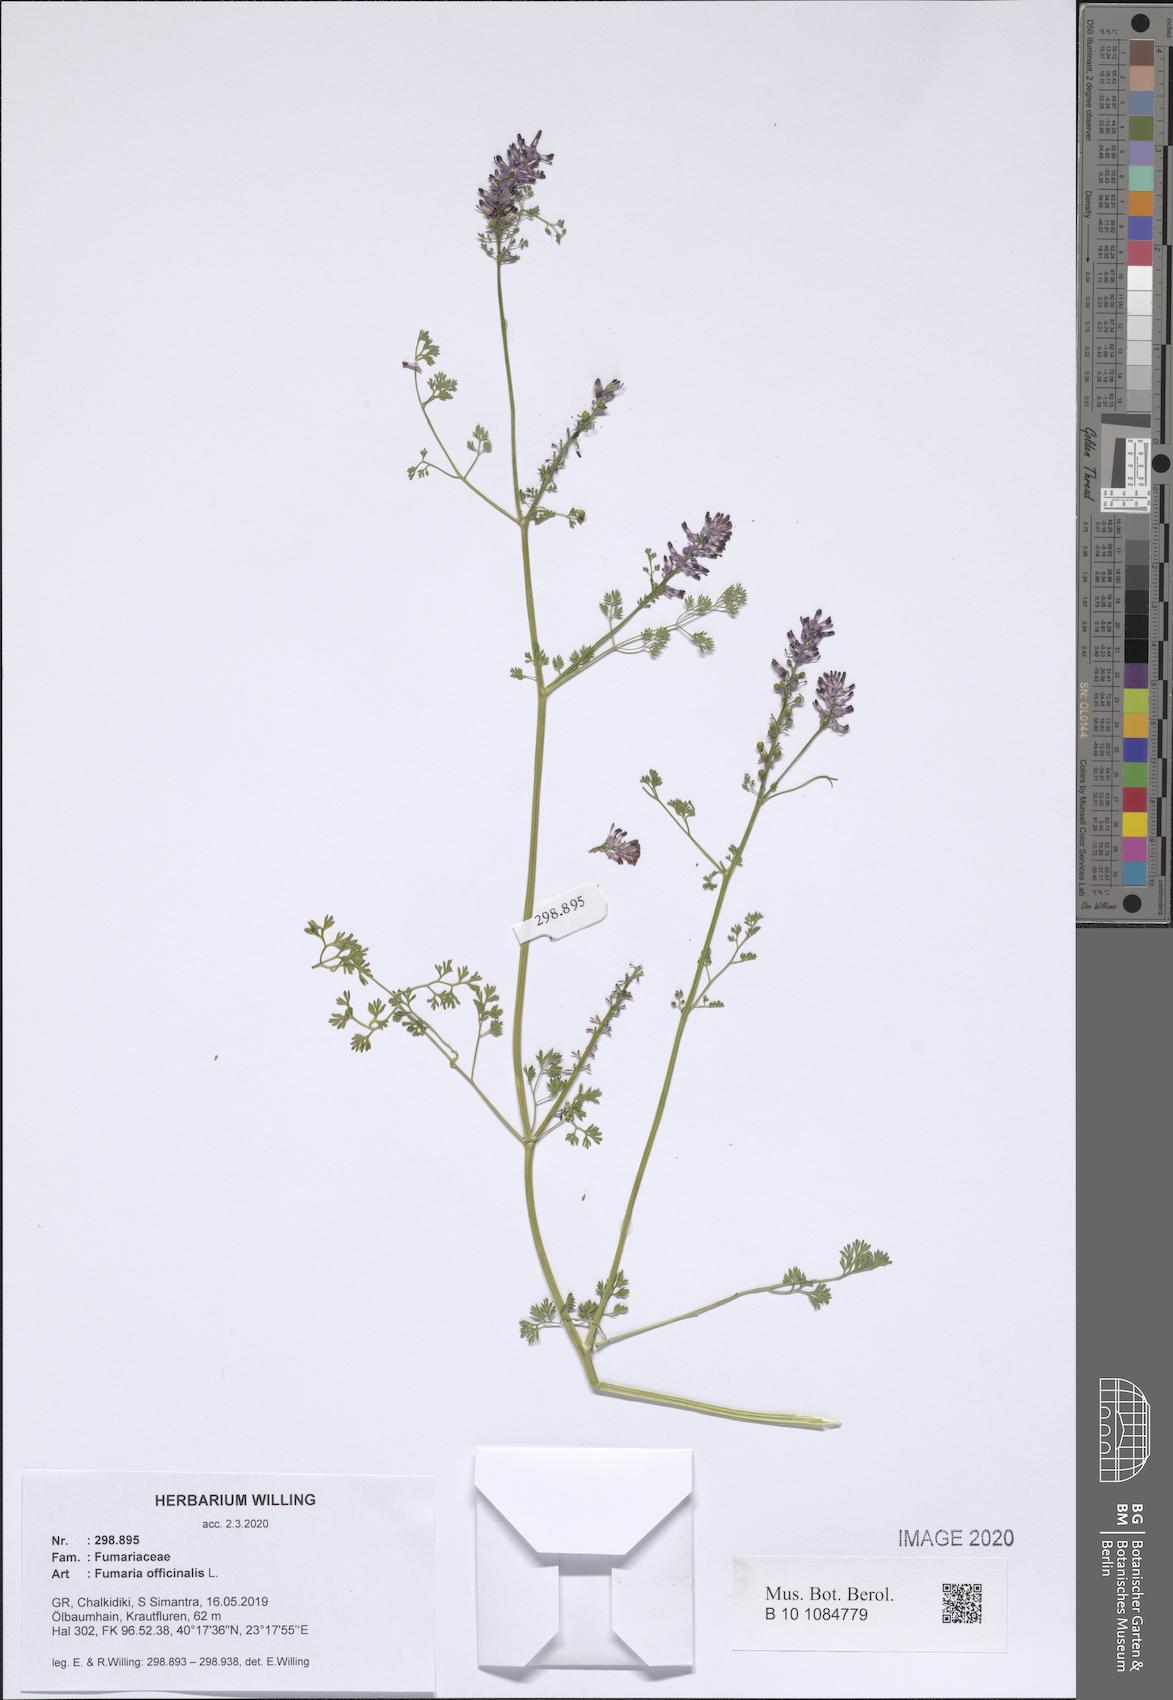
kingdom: Plantae
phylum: Tracheophyta
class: Magnoliopsida
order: Ranunculales
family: Papaveraceae
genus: Fumaria
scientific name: Fumaria officinalis
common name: Common fumitory
